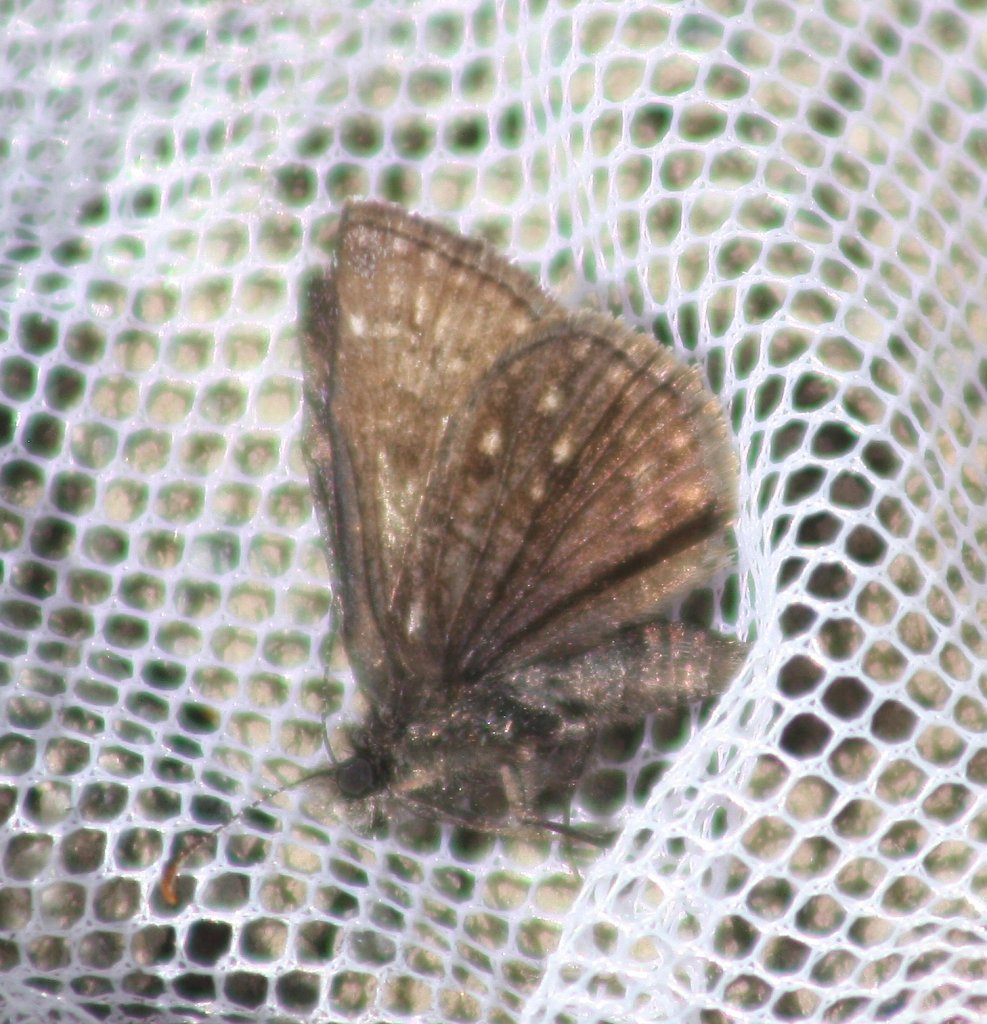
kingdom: Animalia
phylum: Arthropoda
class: Insecta
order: Lepidoptera
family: Hesperiidae
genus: Erynnis
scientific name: Erynnis icelus
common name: Dreamy Duskywing
